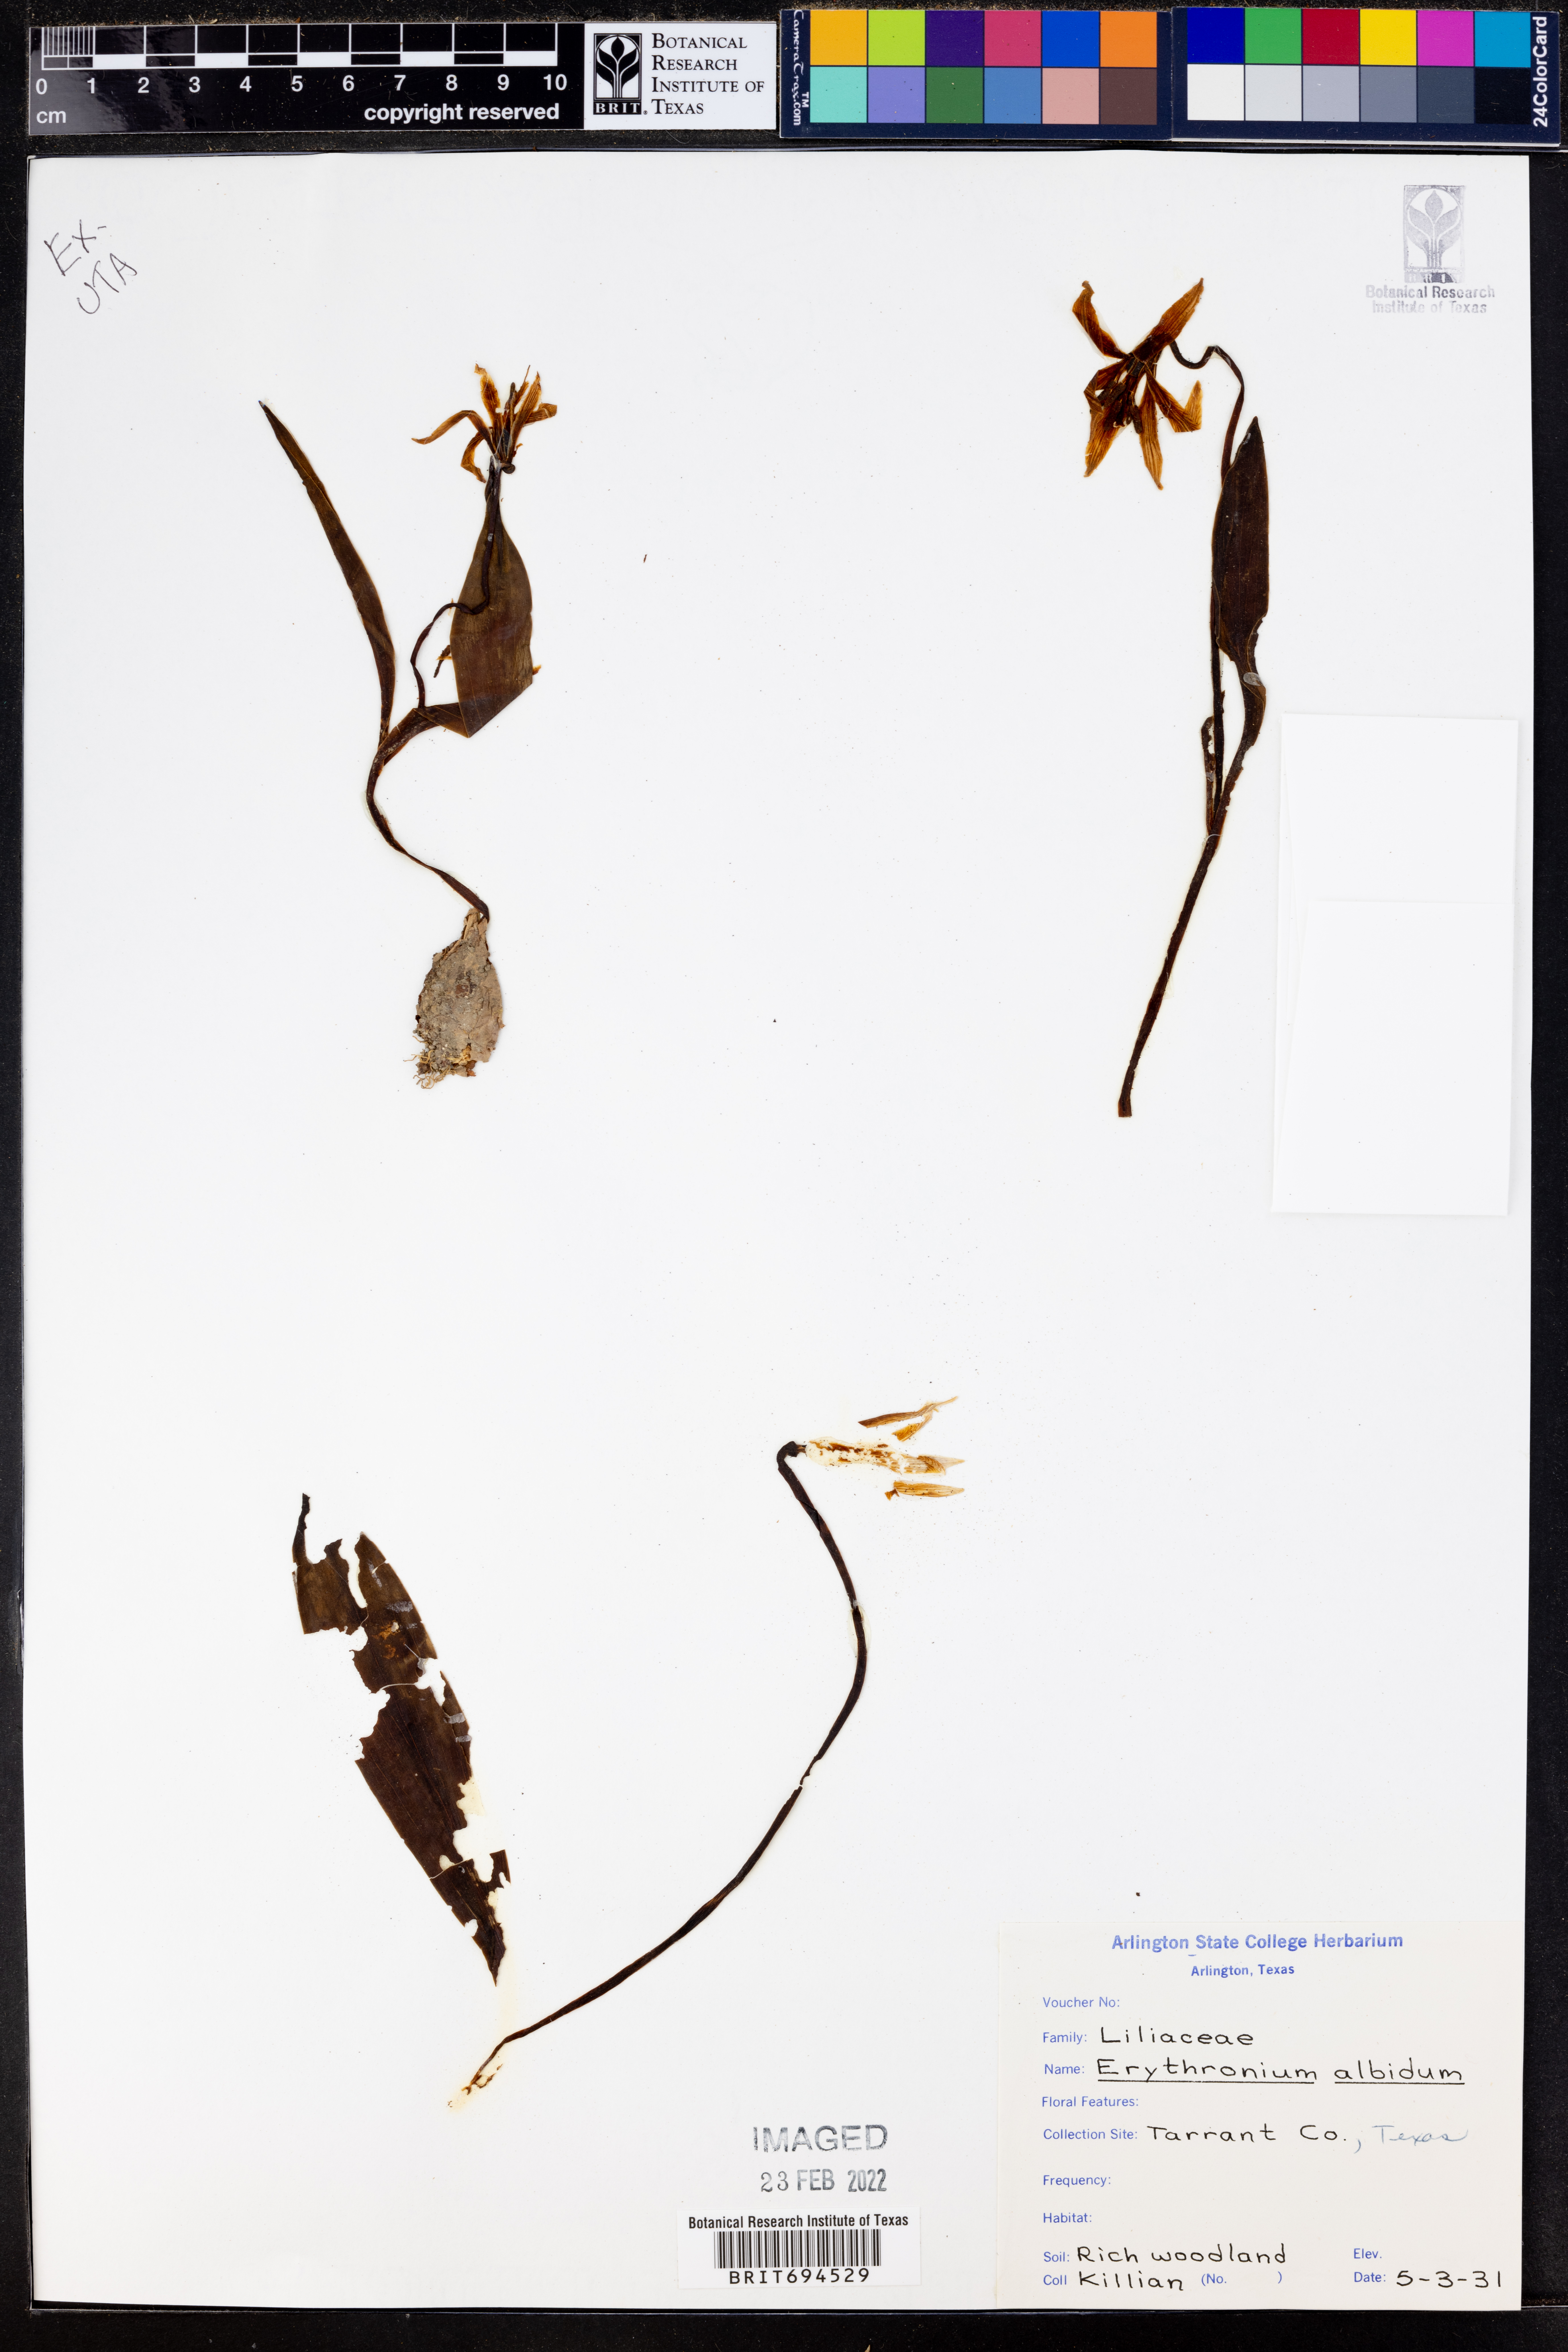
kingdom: Plantae
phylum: Tracheophyta
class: Liliopsida
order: Liliales
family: Liliaceae
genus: Erythronium
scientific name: Erythronium albidum
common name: White trout-lily
